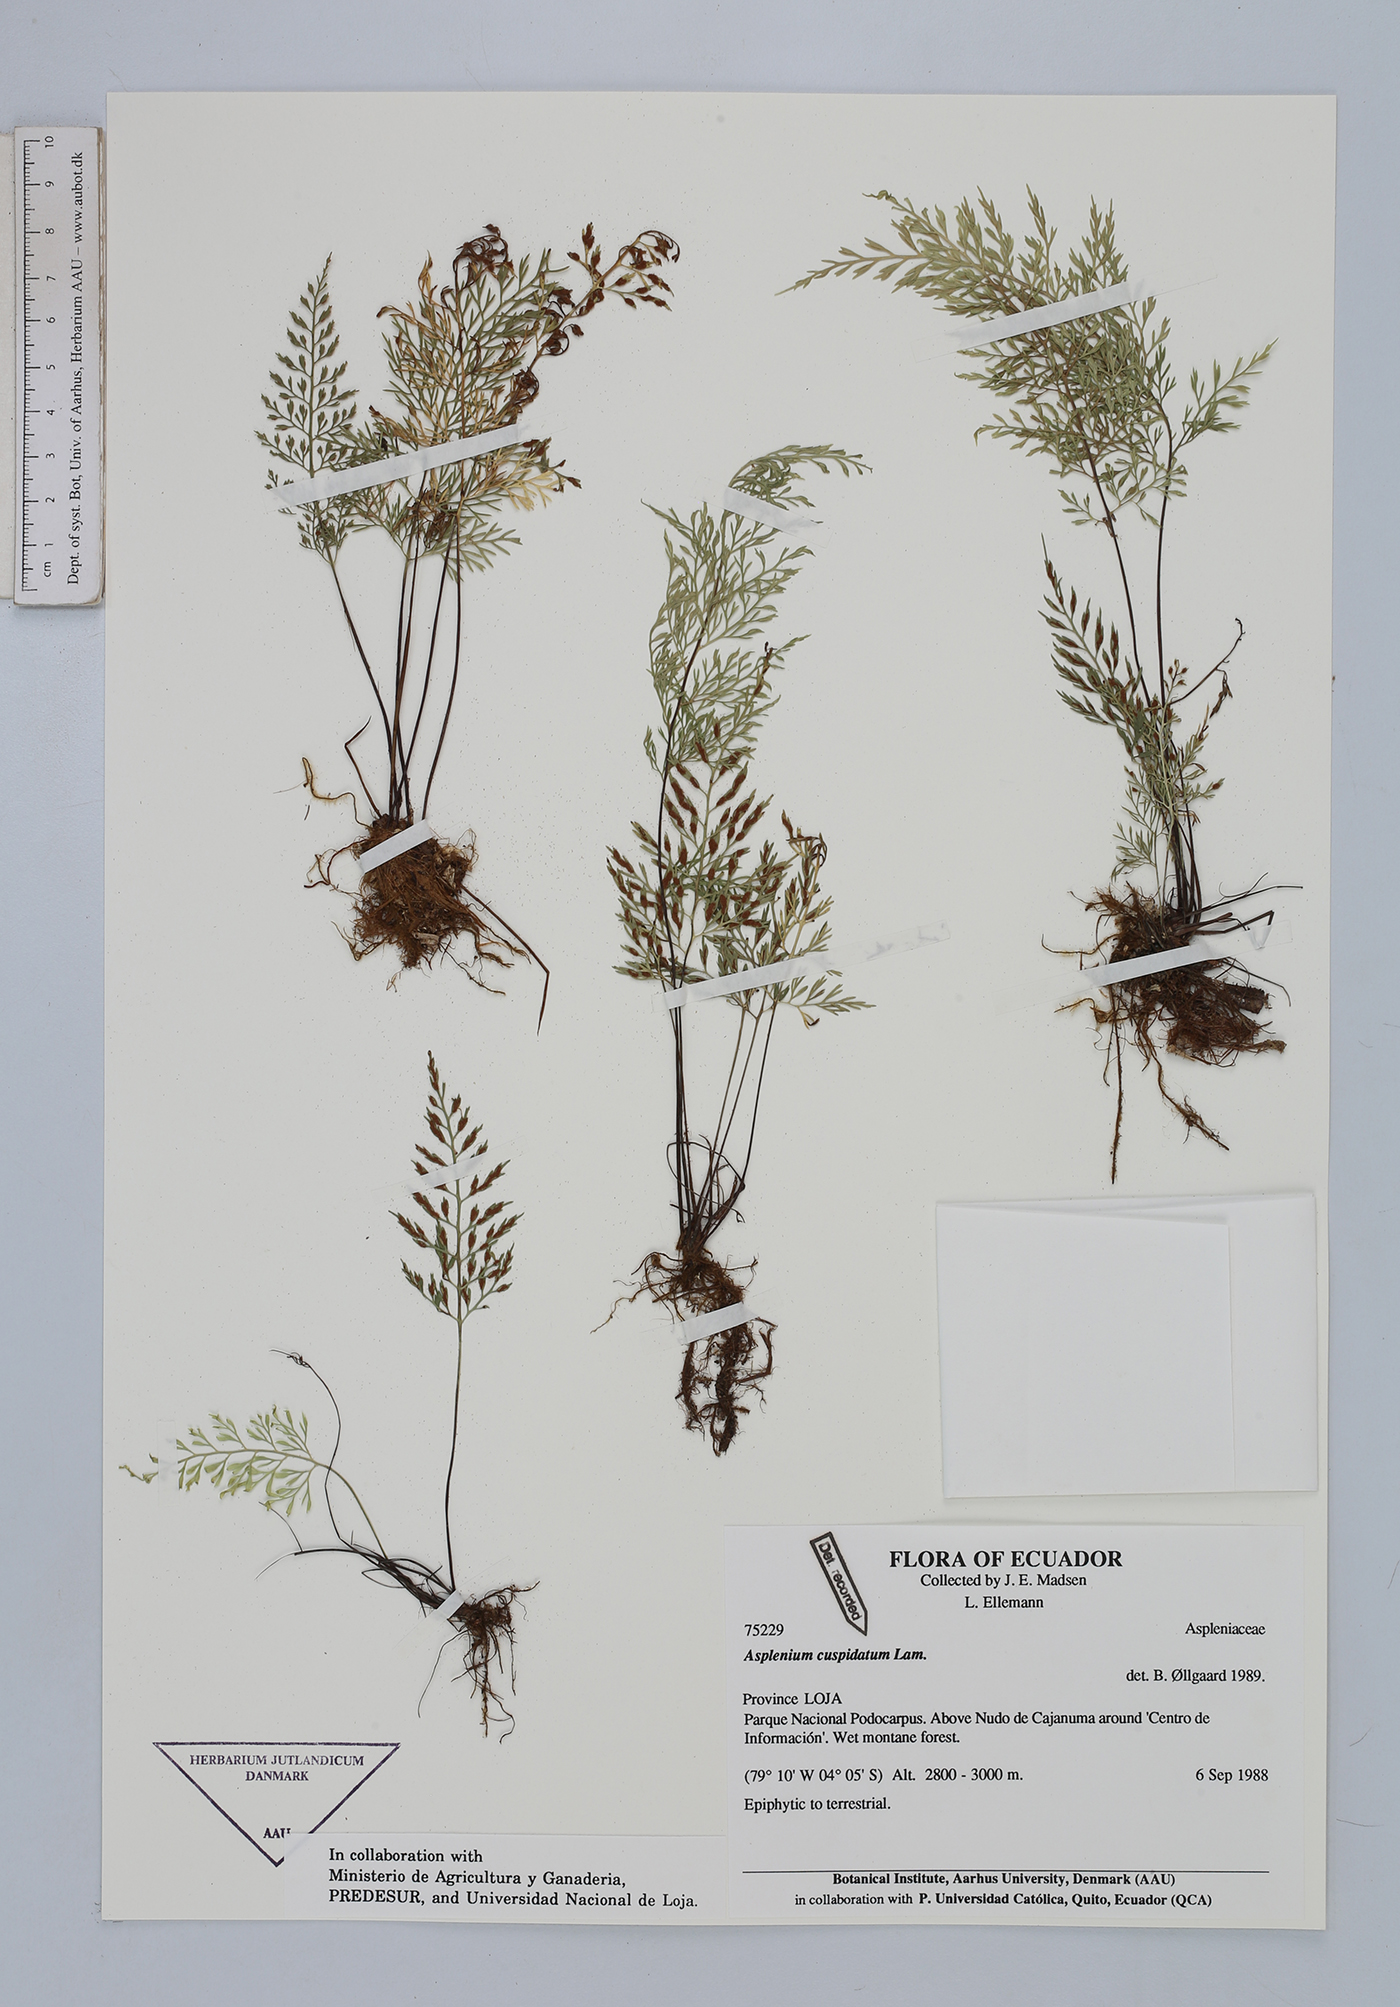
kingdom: Plantae
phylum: Tracheophyta
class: Polypodiopsida
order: Polypodiales
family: Aspleniaceae
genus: Asplenium
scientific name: Asplenium cuspidatum
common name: Eared spleenwort
